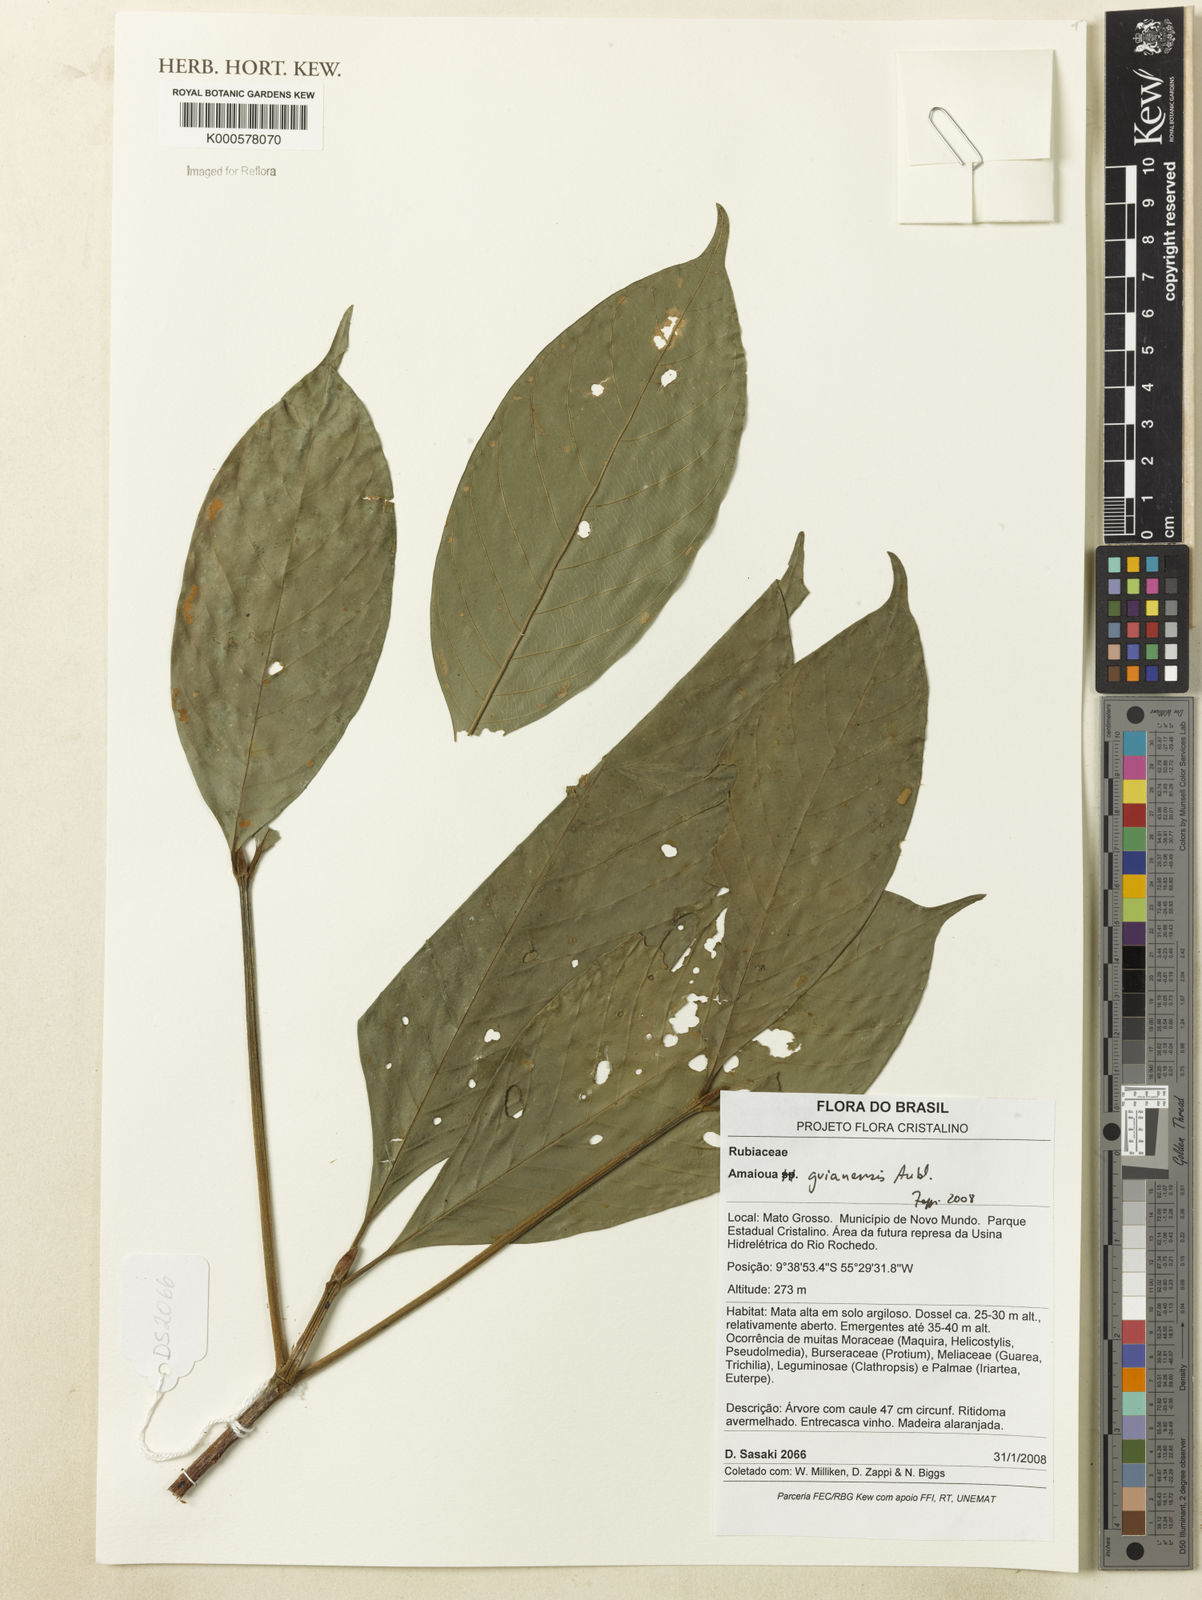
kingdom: Plantae
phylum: Tracheophyta
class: Magnoliopsida
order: Gentianales
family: Rubiaceae
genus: Amaioua
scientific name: Amaioua guianensis
